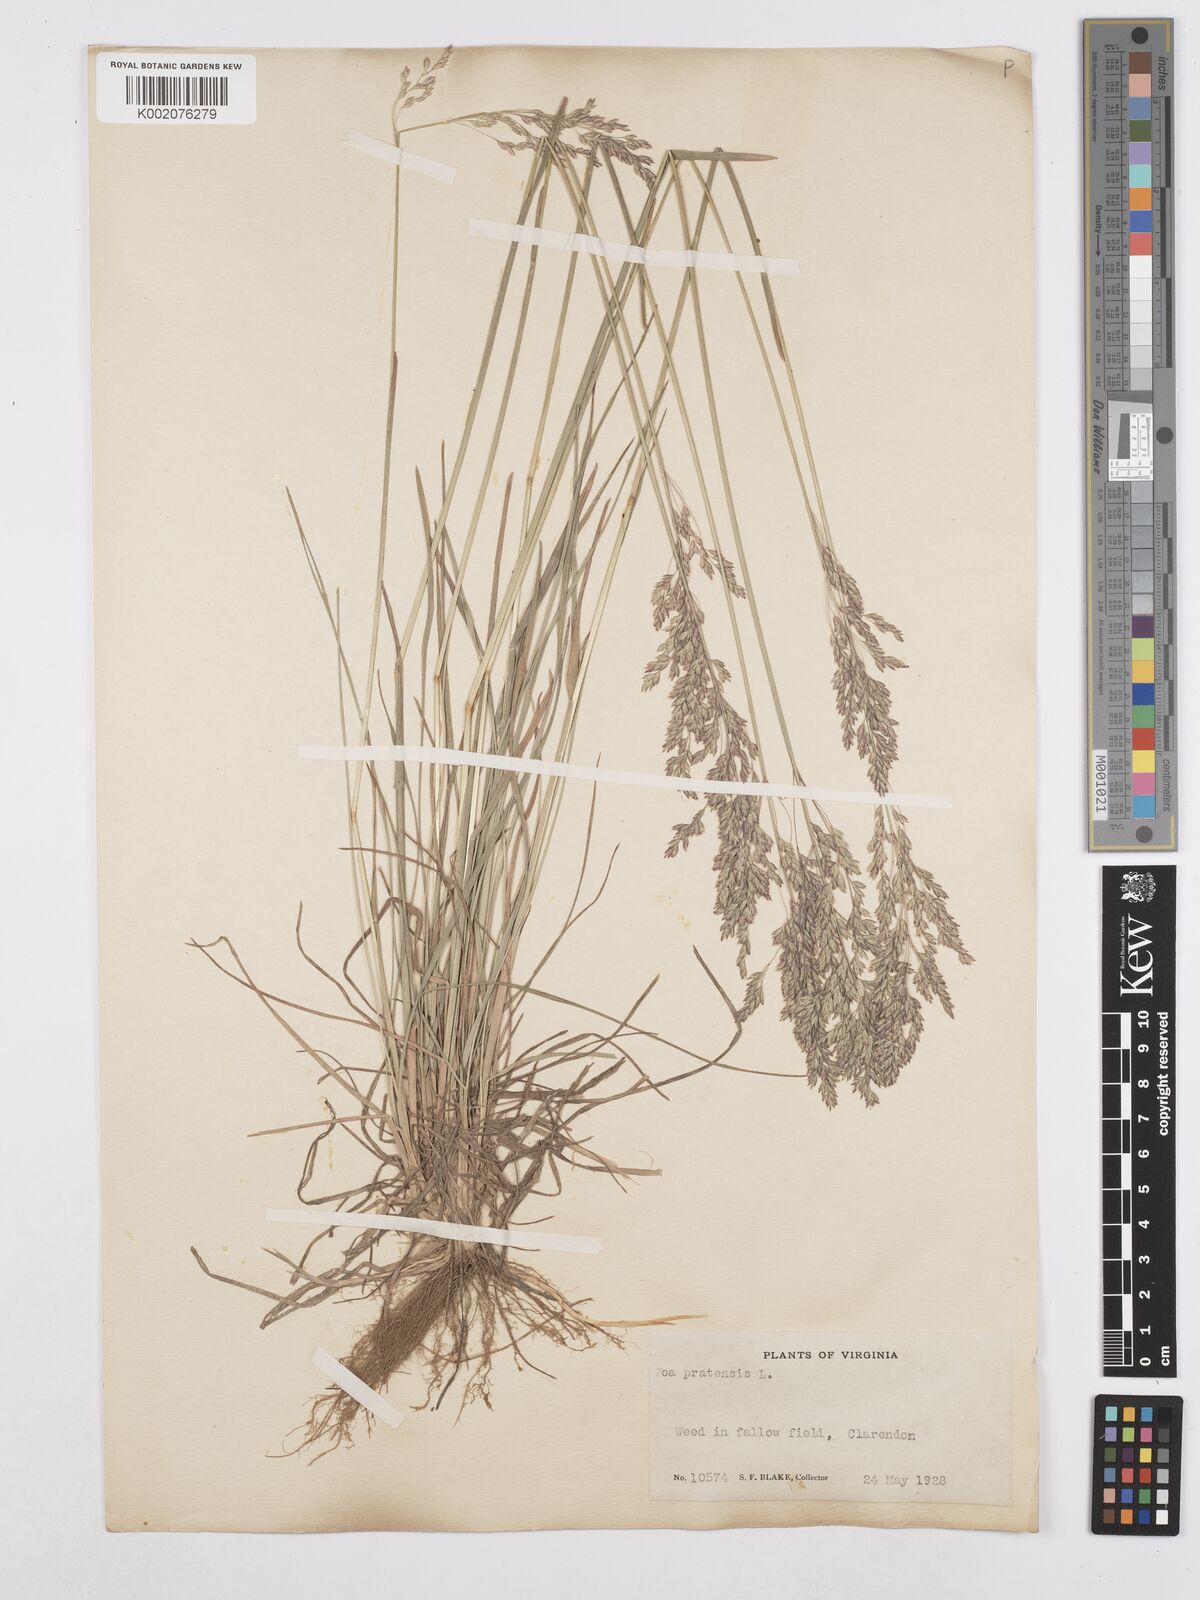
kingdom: Plantae
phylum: Tracheophyta
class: Liliopsida
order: Poales
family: Poaceae
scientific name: Poaceae
